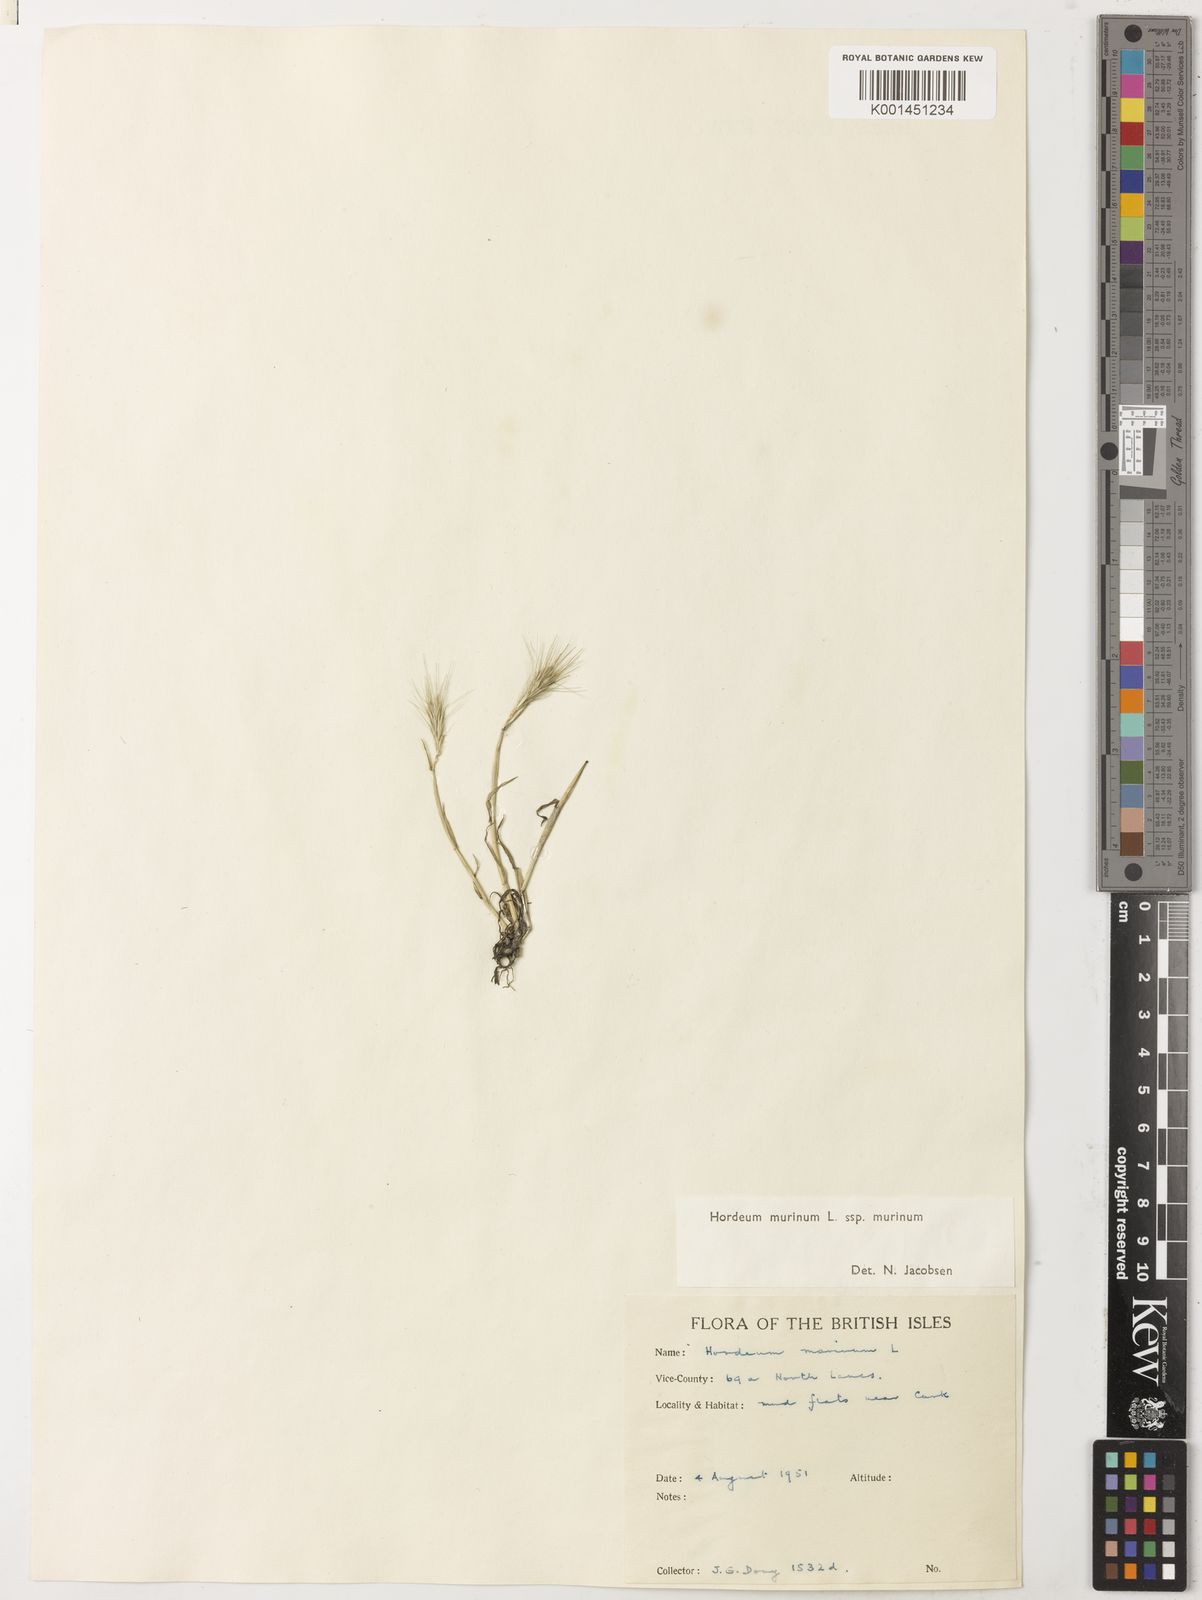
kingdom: Plantae
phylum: Tracheophyta
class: Liliopsida
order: Poales
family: Poaceae
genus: Hordeum
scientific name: Hordeum murinum
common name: Wall barley
